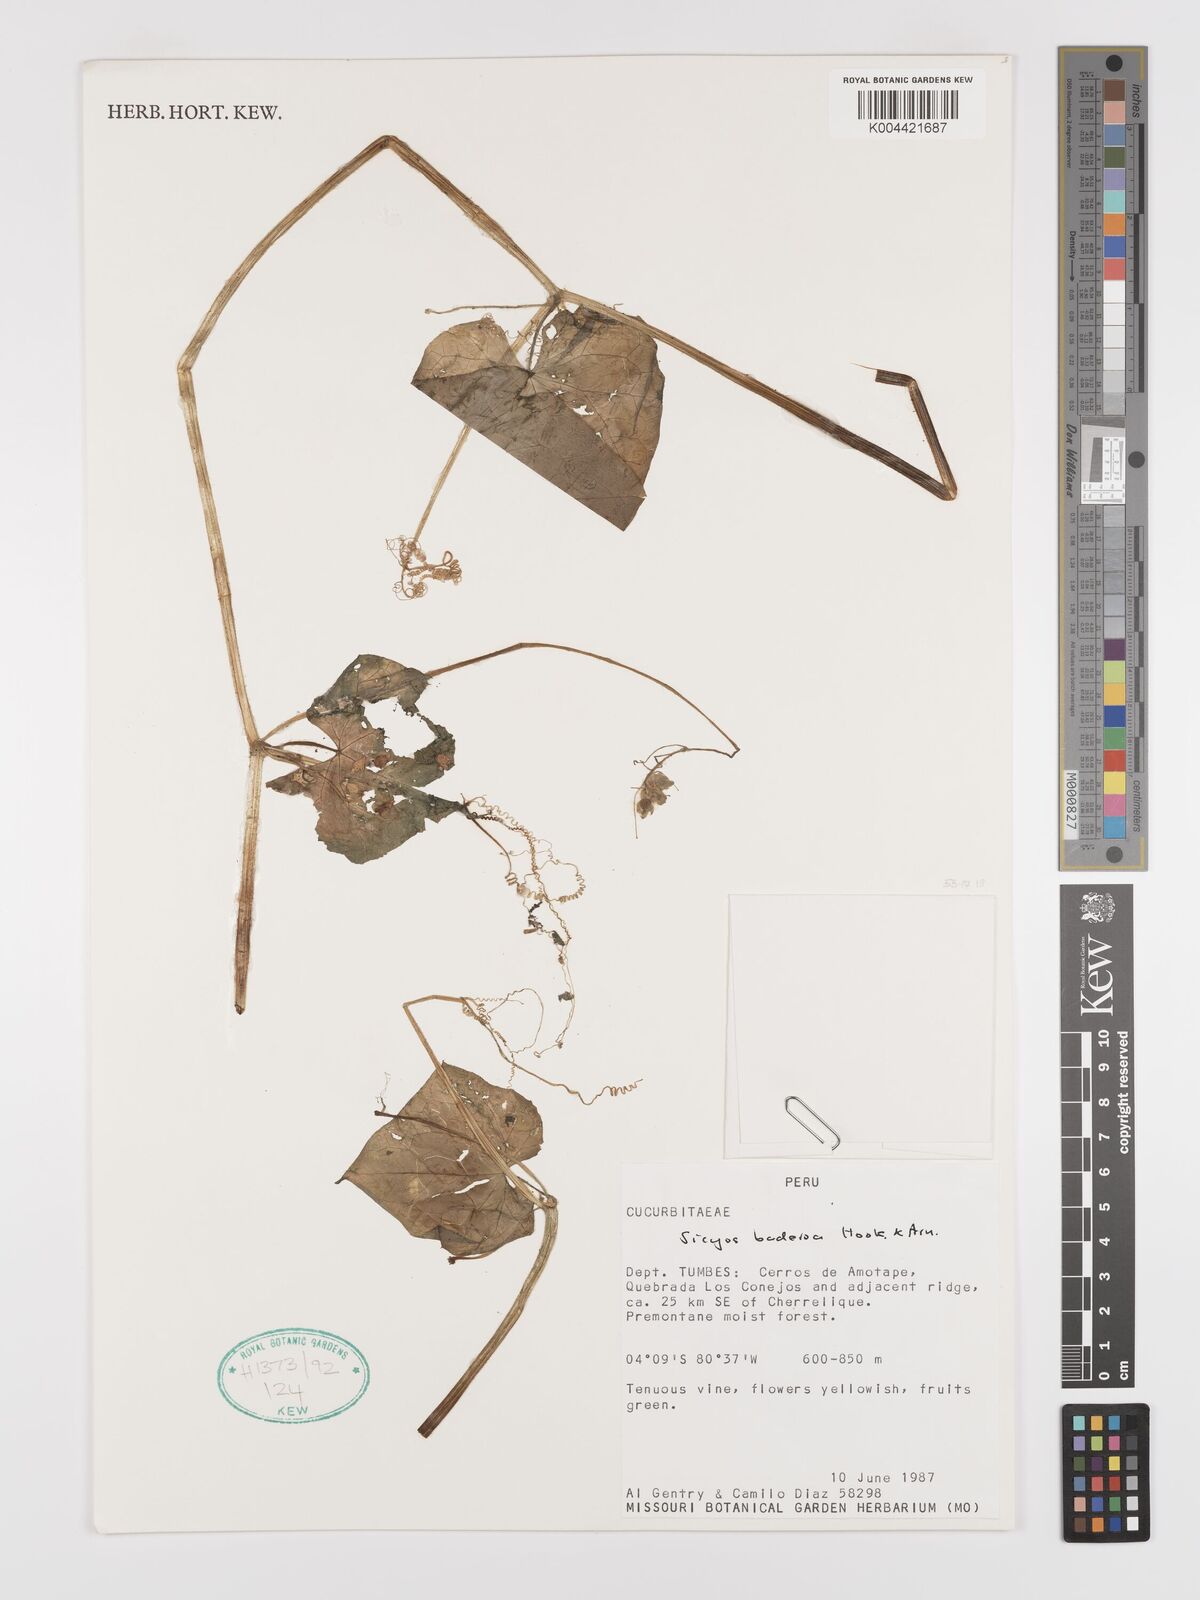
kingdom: Plantae
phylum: Tracheophyta
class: Magnoliopsida
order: Cucurbitales
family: Cucurbitaceae
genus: Sicyos
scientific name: Sicyos baderoa
